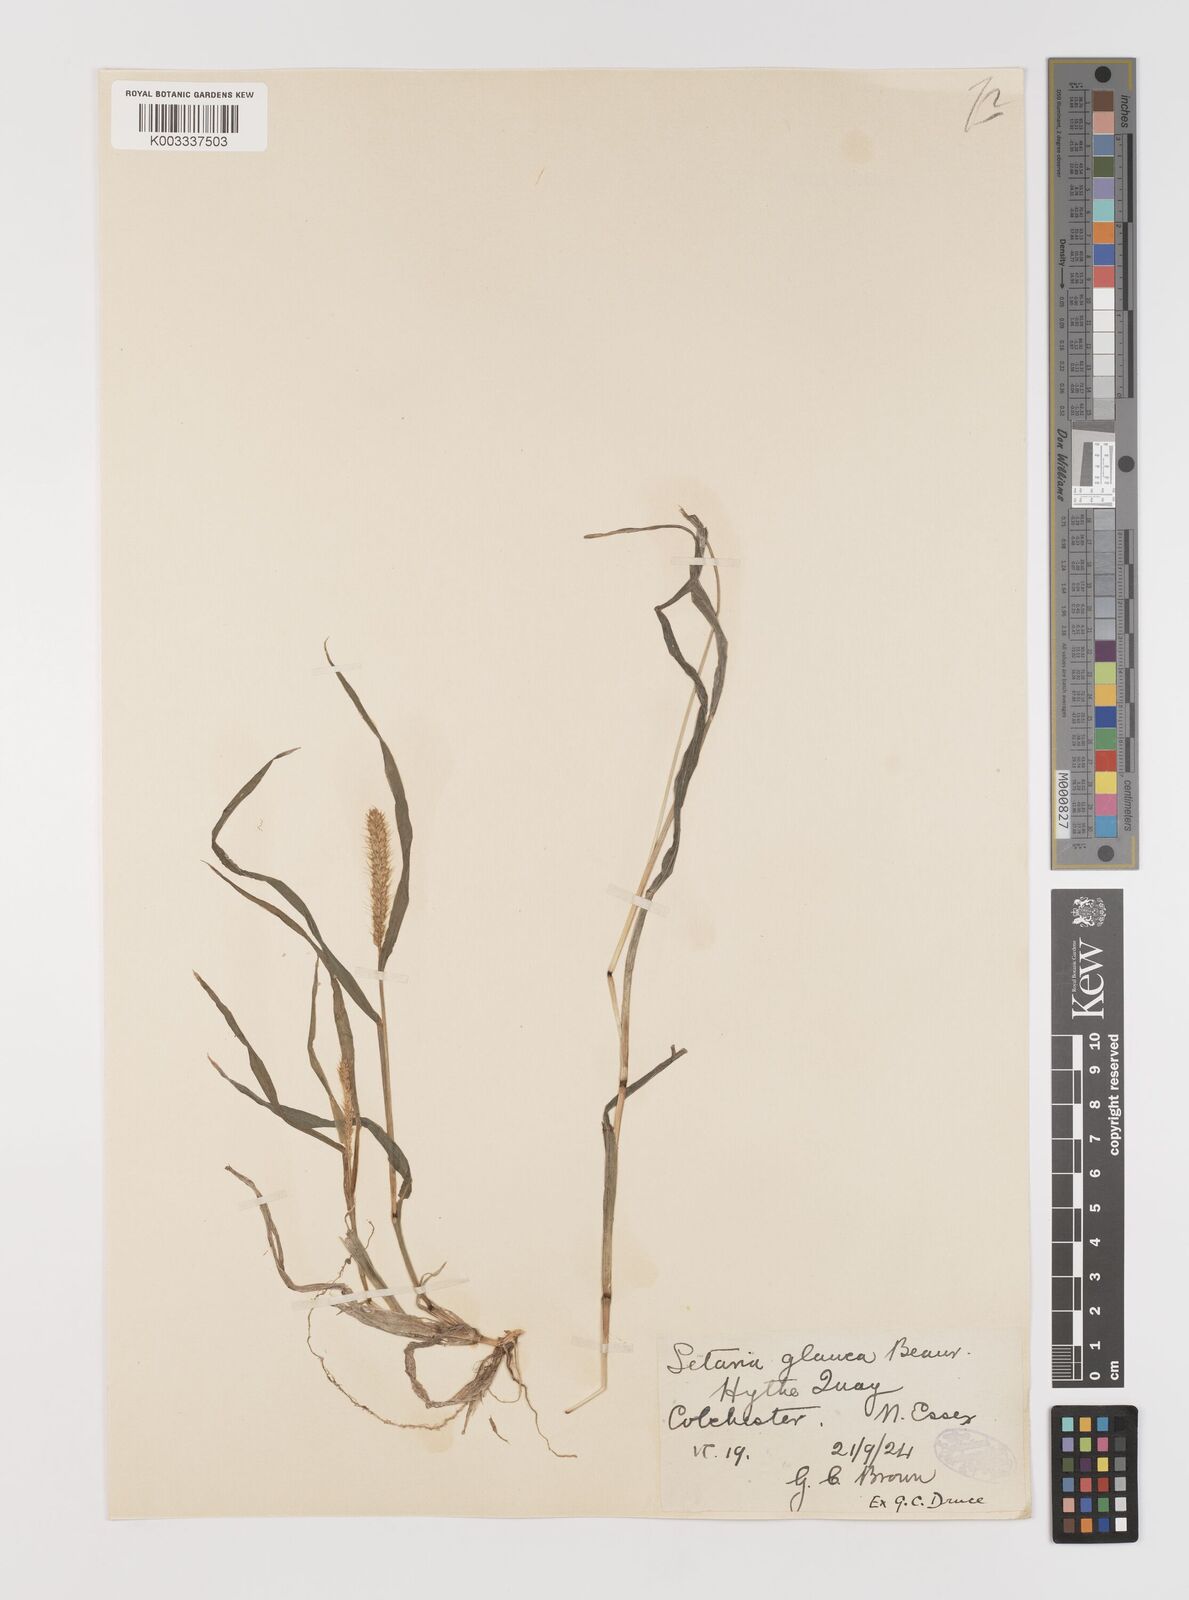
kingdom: Plantae
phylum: Tracheophyta
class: Liliopsida
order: Poales
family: Poaceae
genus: Setaria
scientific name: Setaria pumila
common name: Yellow bristle-grass
